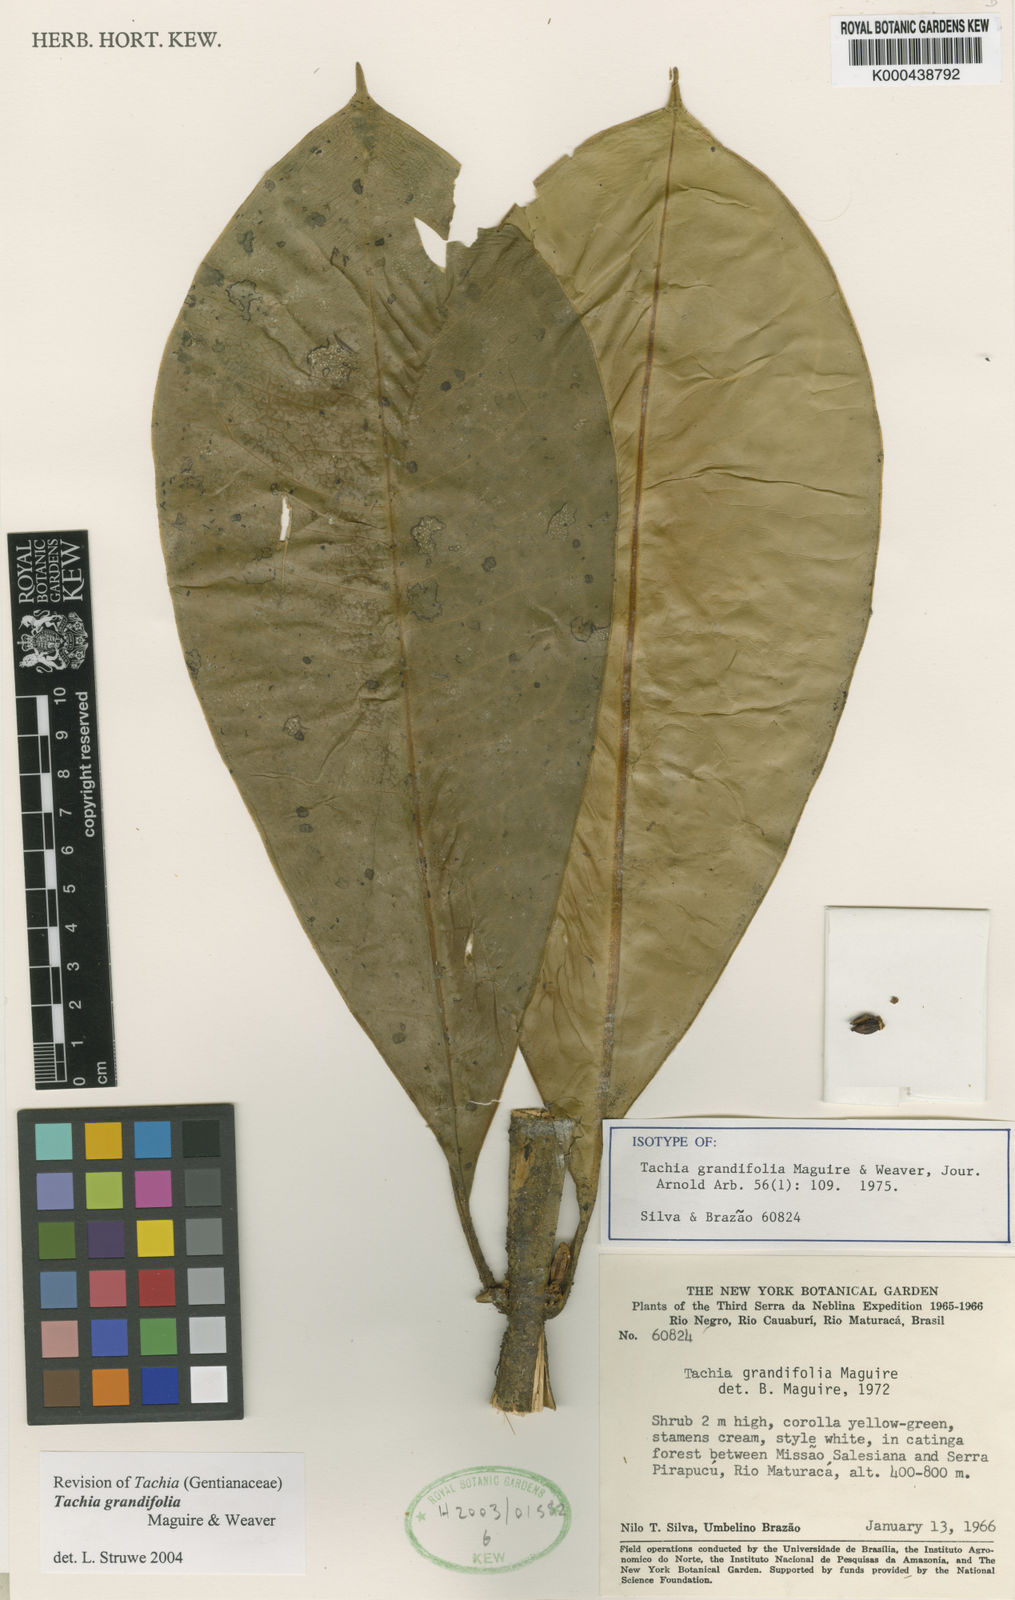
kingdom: Plantae
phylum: Tracheophyta
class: Magnoliopsida
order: Gentianales
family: Gentianaceae
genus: Tachia
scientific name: Tachia grandifolia
